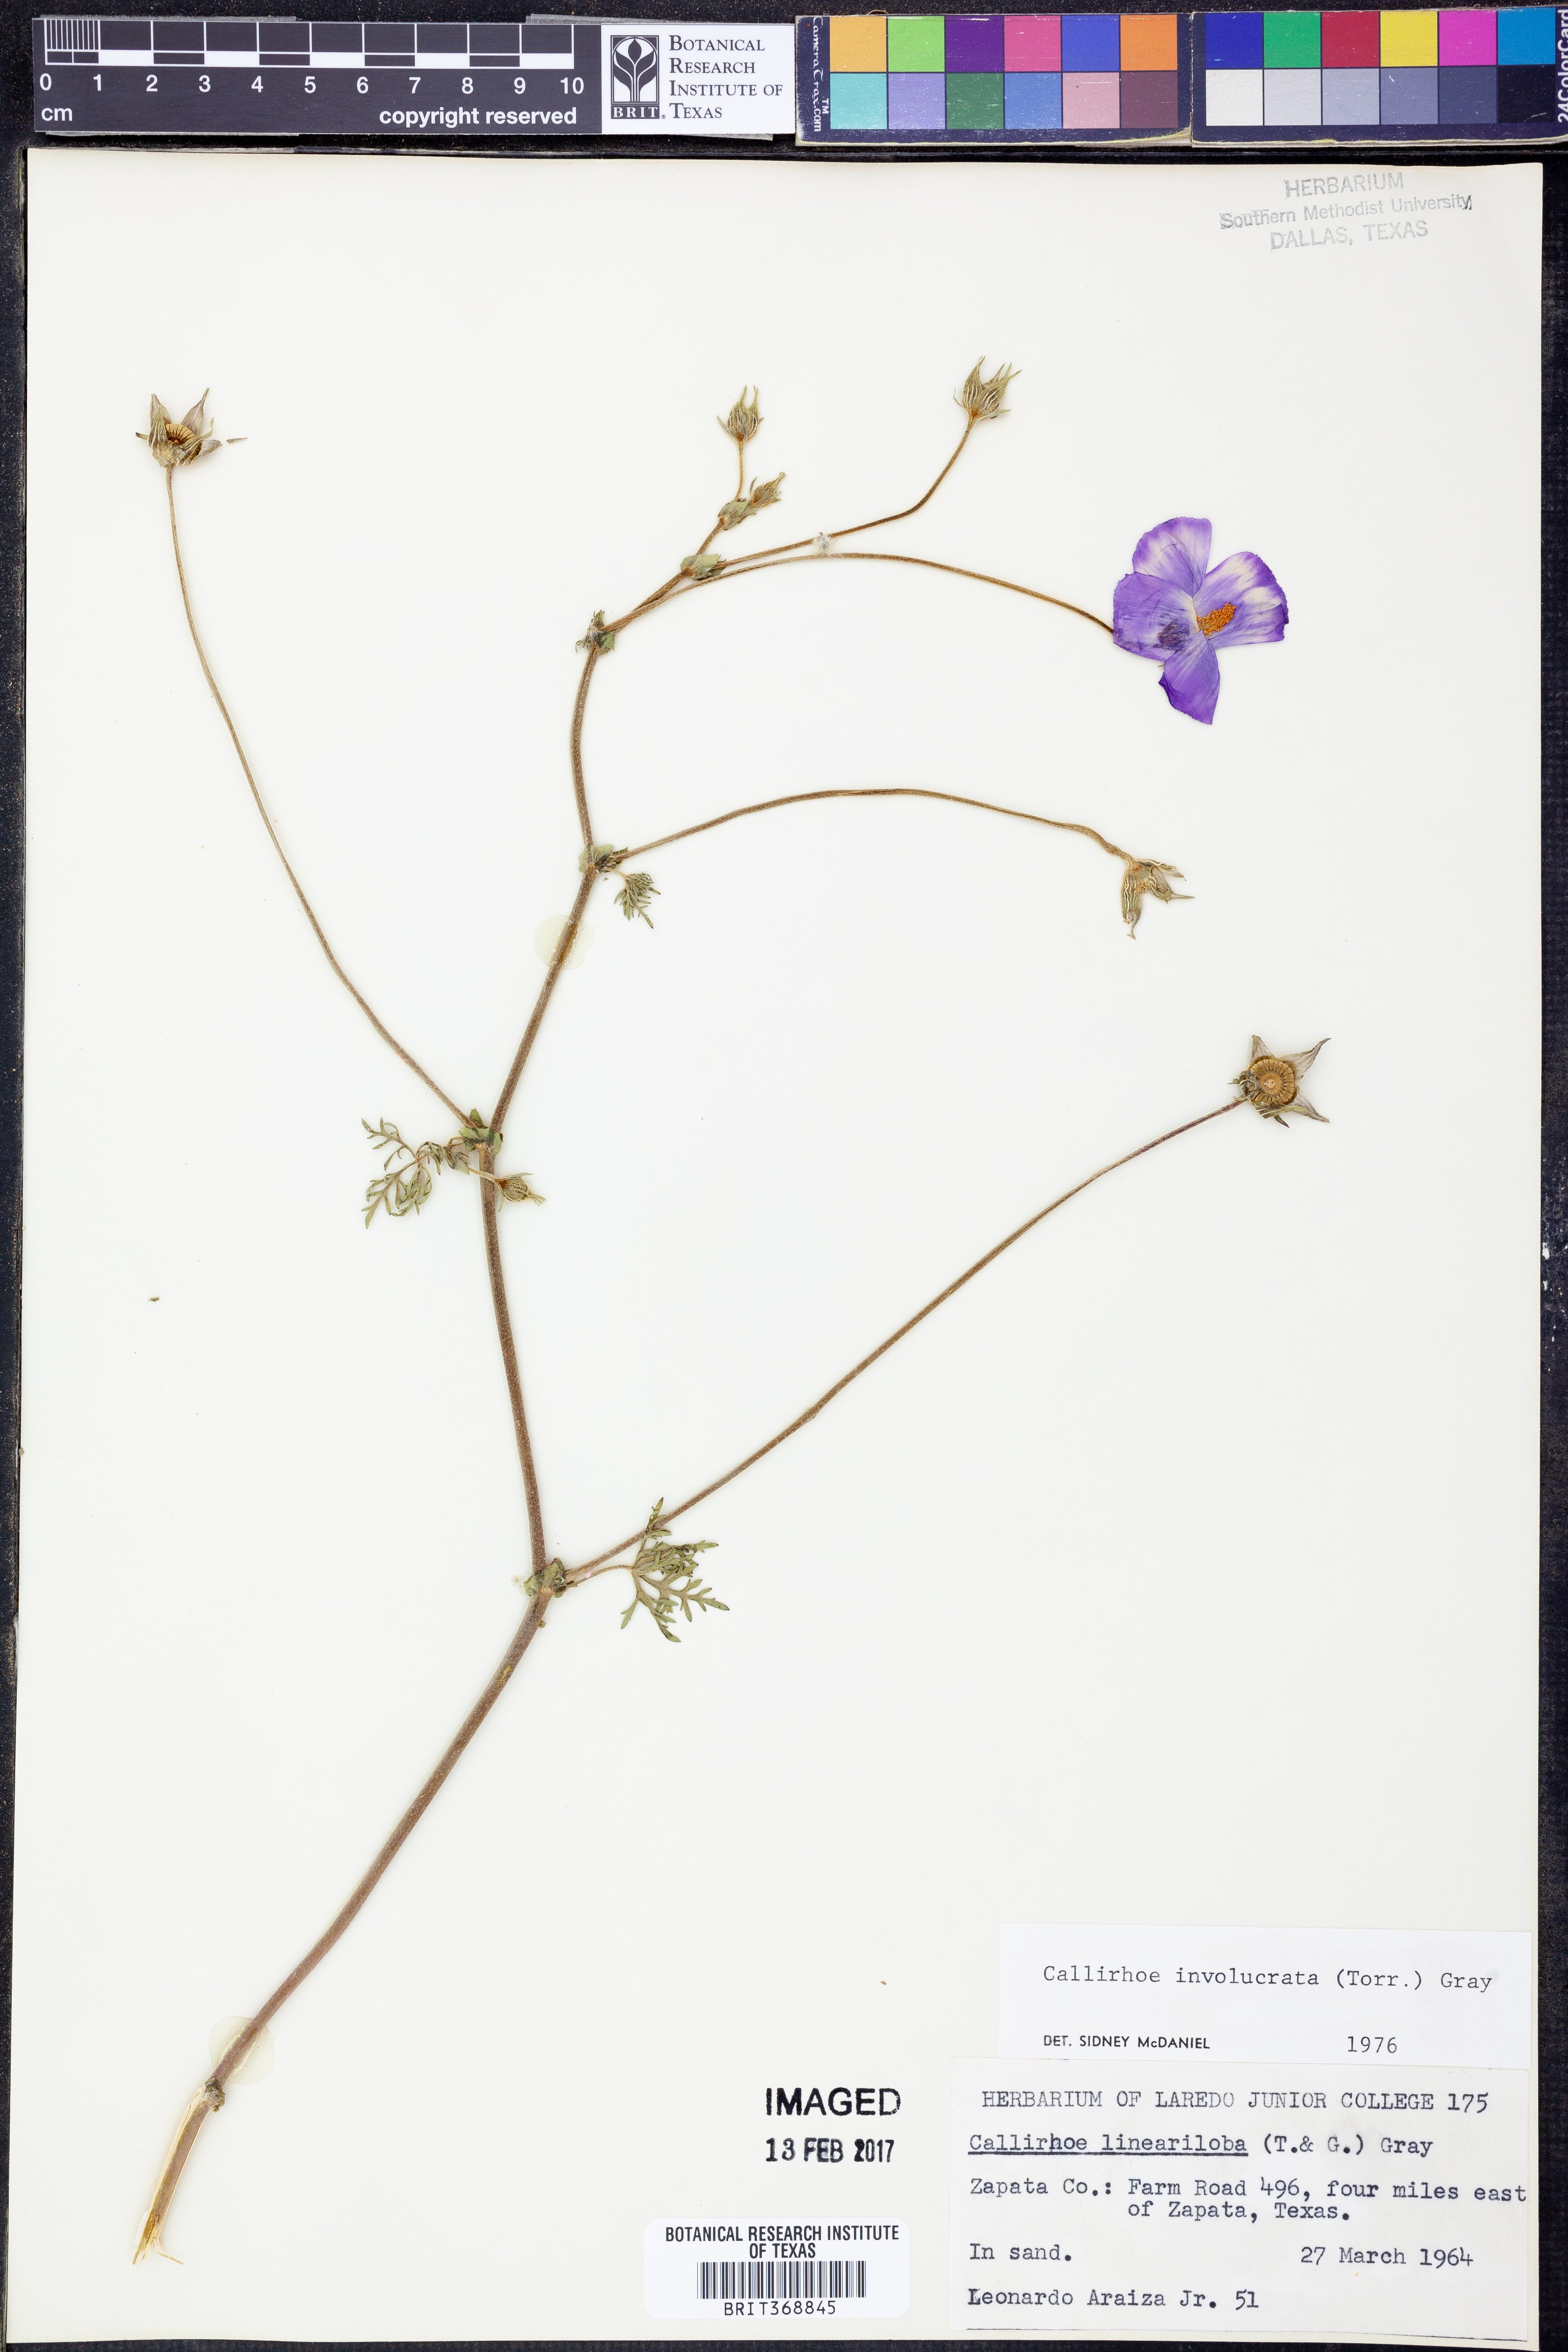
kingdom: Plantae
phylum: Tracheophyta
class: Magnoliopsida
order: Malvales
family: Malvaceae
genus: Callirhoe
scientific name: Callirhoe involucrata
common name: Purple poppy-mallow
